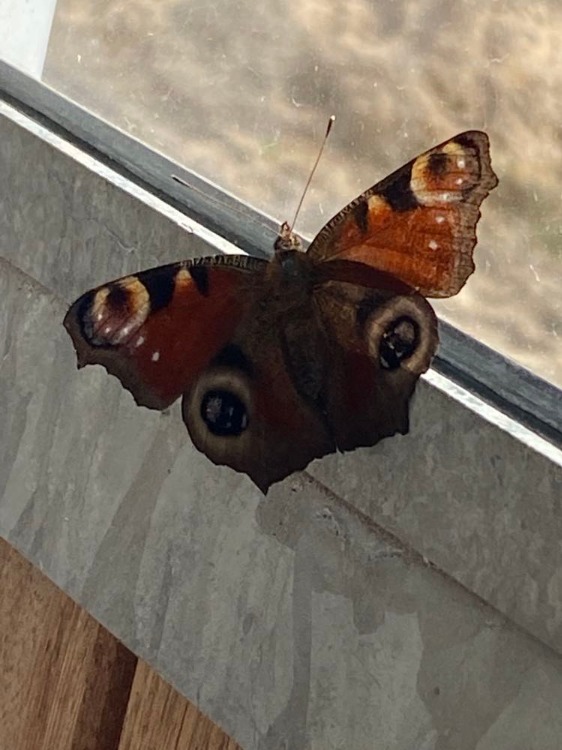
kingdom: Animalia
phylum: Arthropoda
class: Insecta
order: Lepidoptera
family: Nymphalidae
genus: Aglais
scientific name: Aglais io
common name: Dagpåfugleøje
